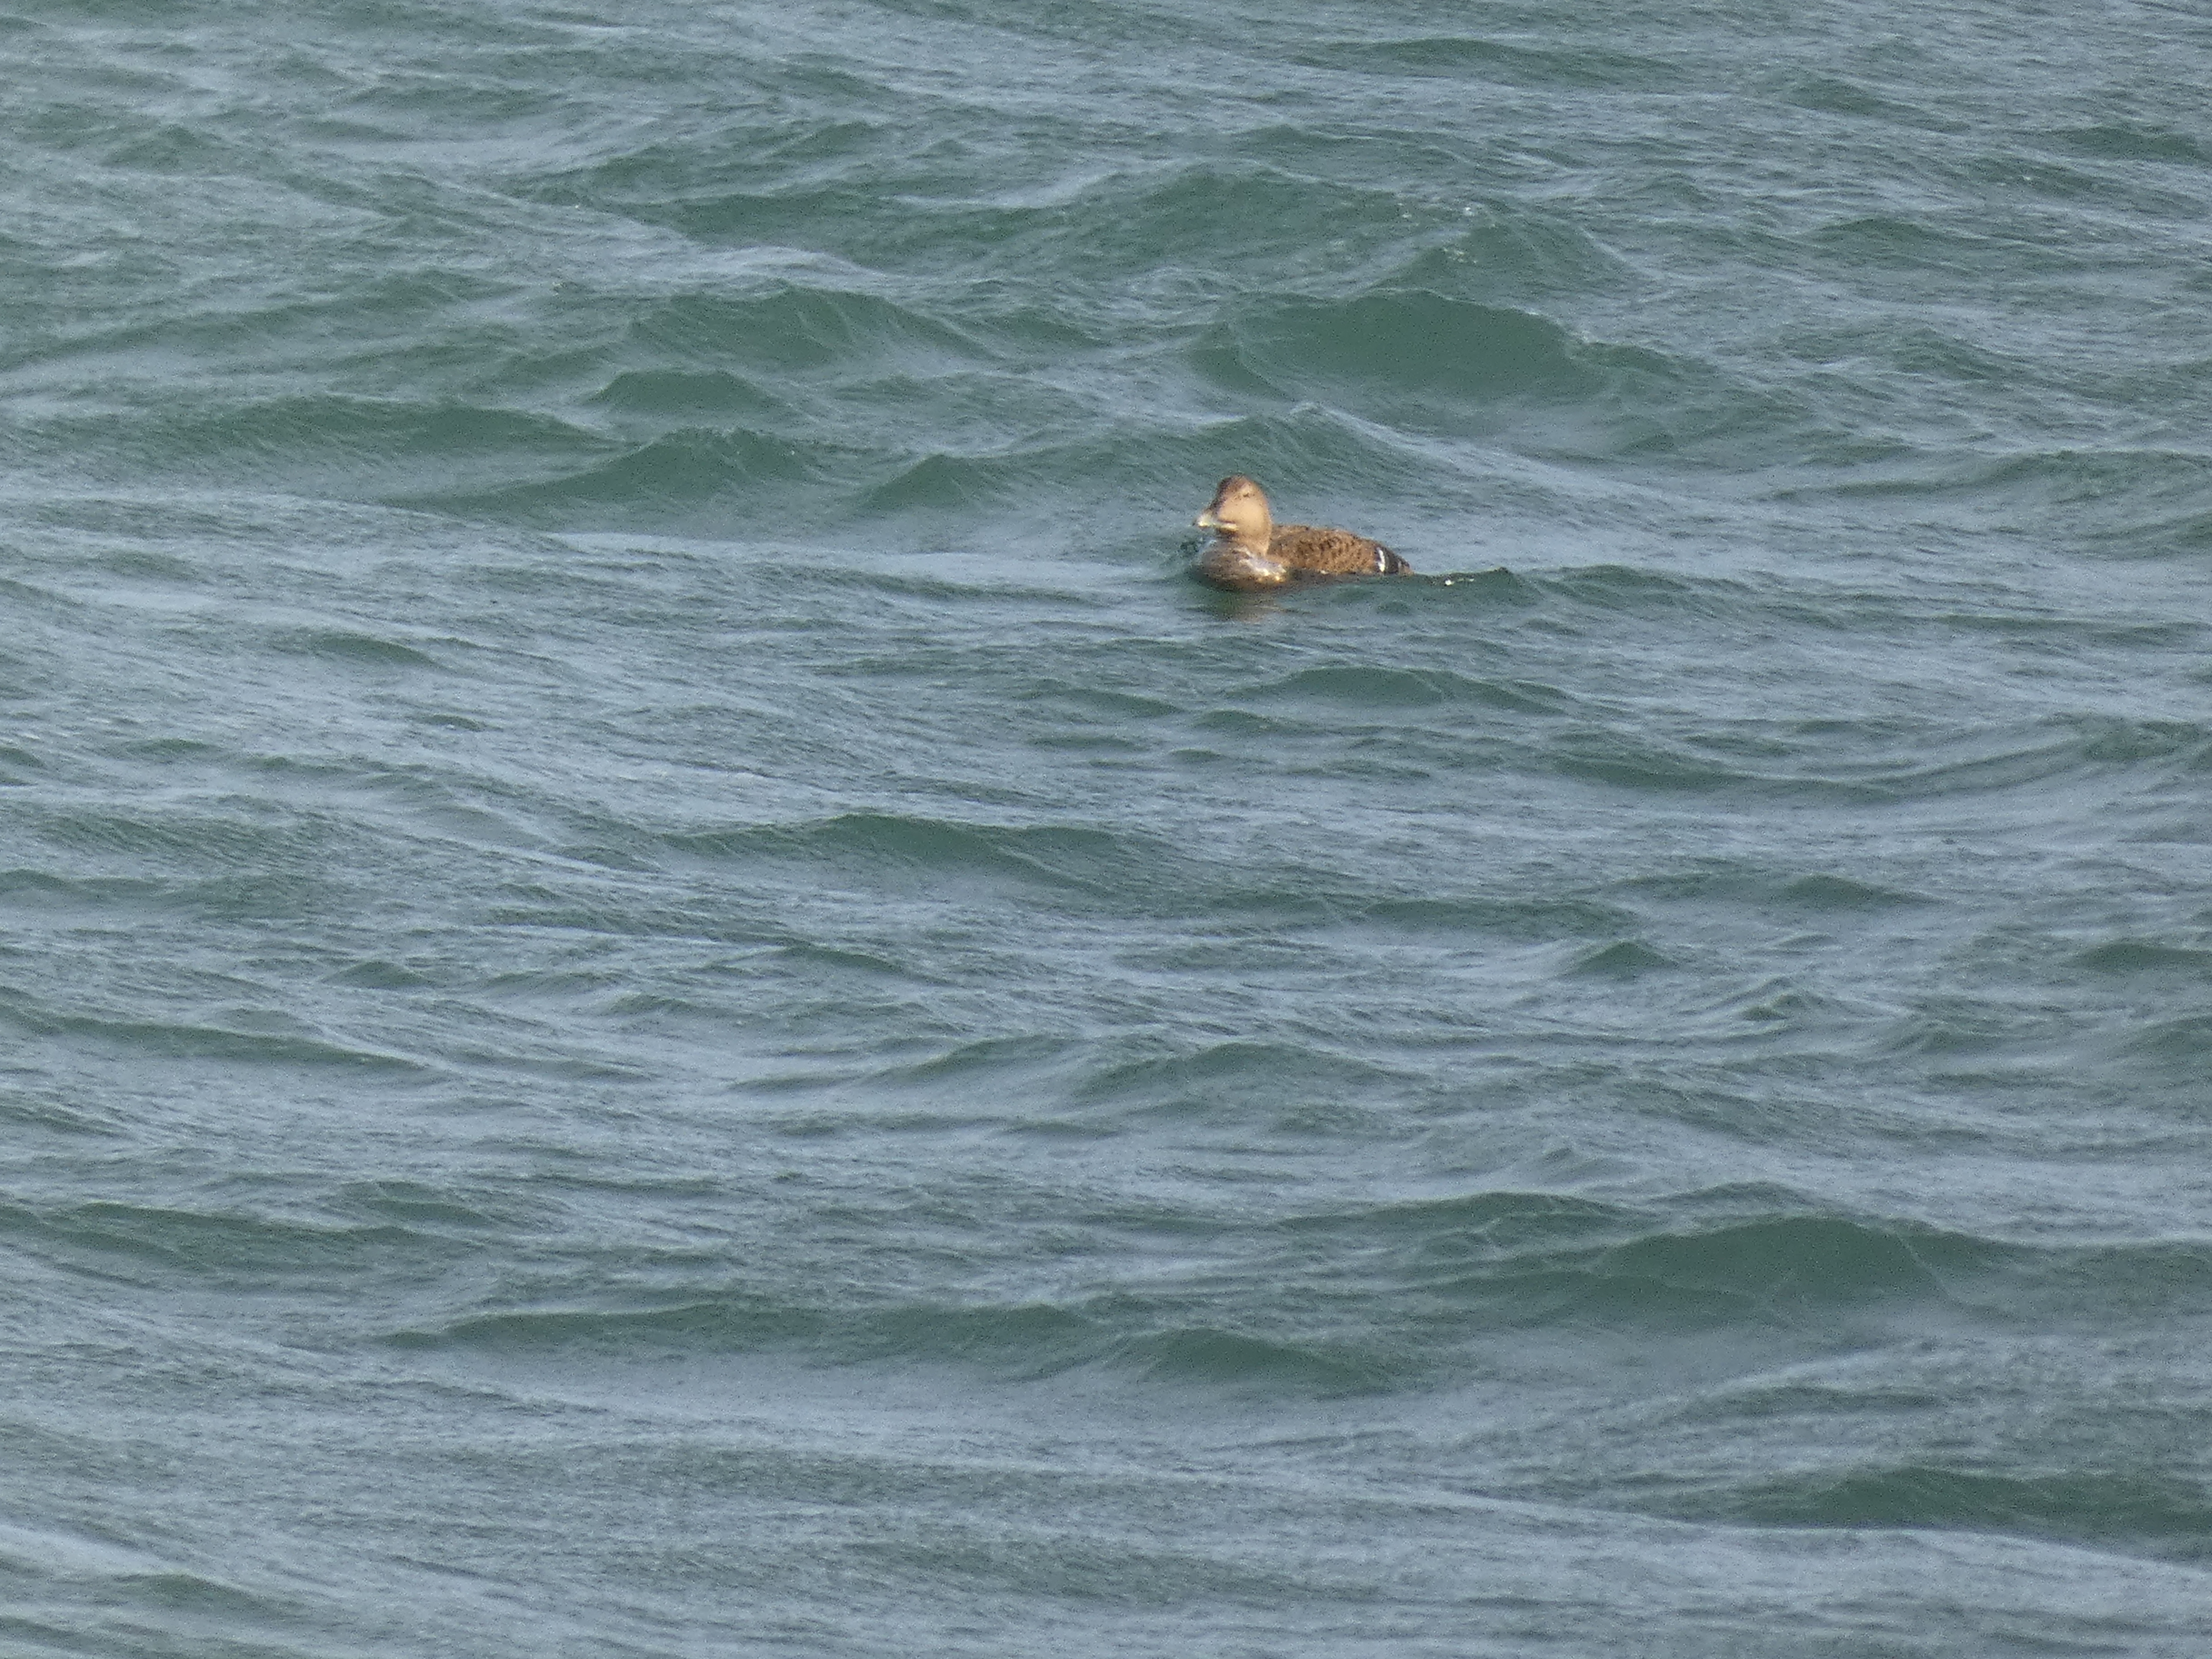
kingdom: Animalia
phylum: Chordata
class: Aves
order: Anseriformes
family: Anatidae
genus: Somateria
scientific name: Somateria mollissima
